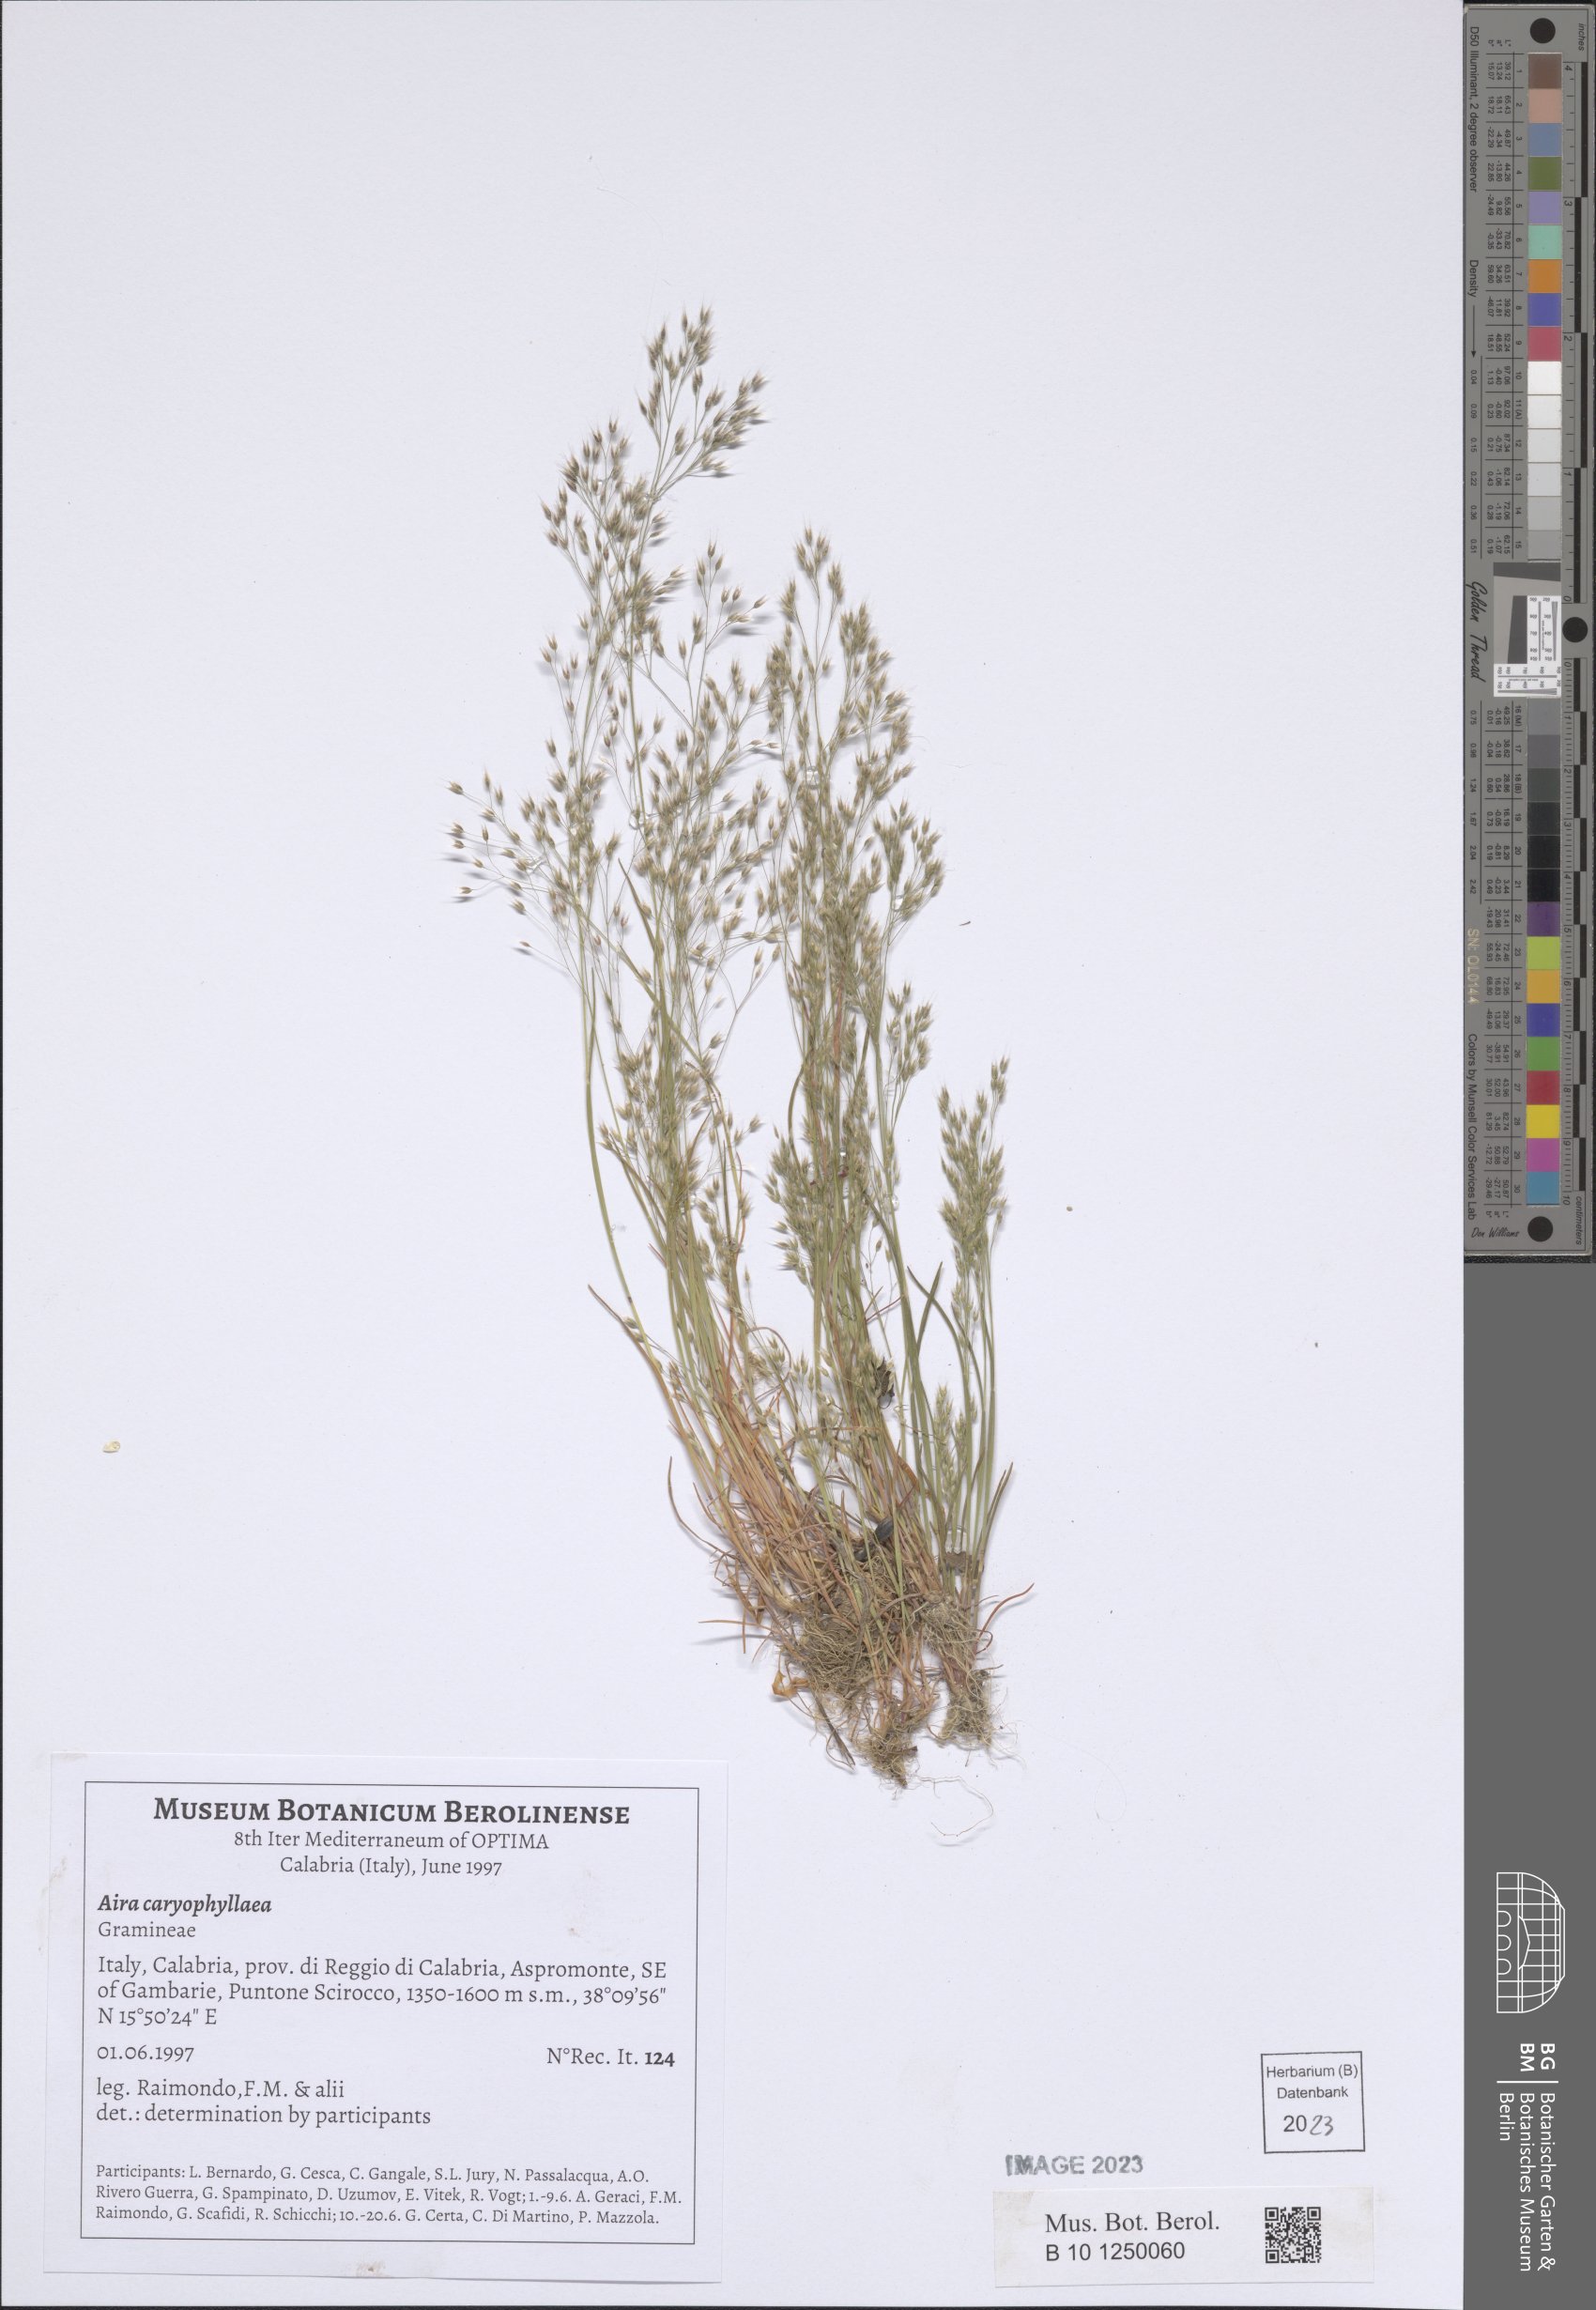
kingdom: Plantae
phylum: Tracheophyta
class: Liliopsida
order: Poales
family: Poaceae
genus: Aira
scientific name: Aira caryophyllea
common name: Silver hairgrass
